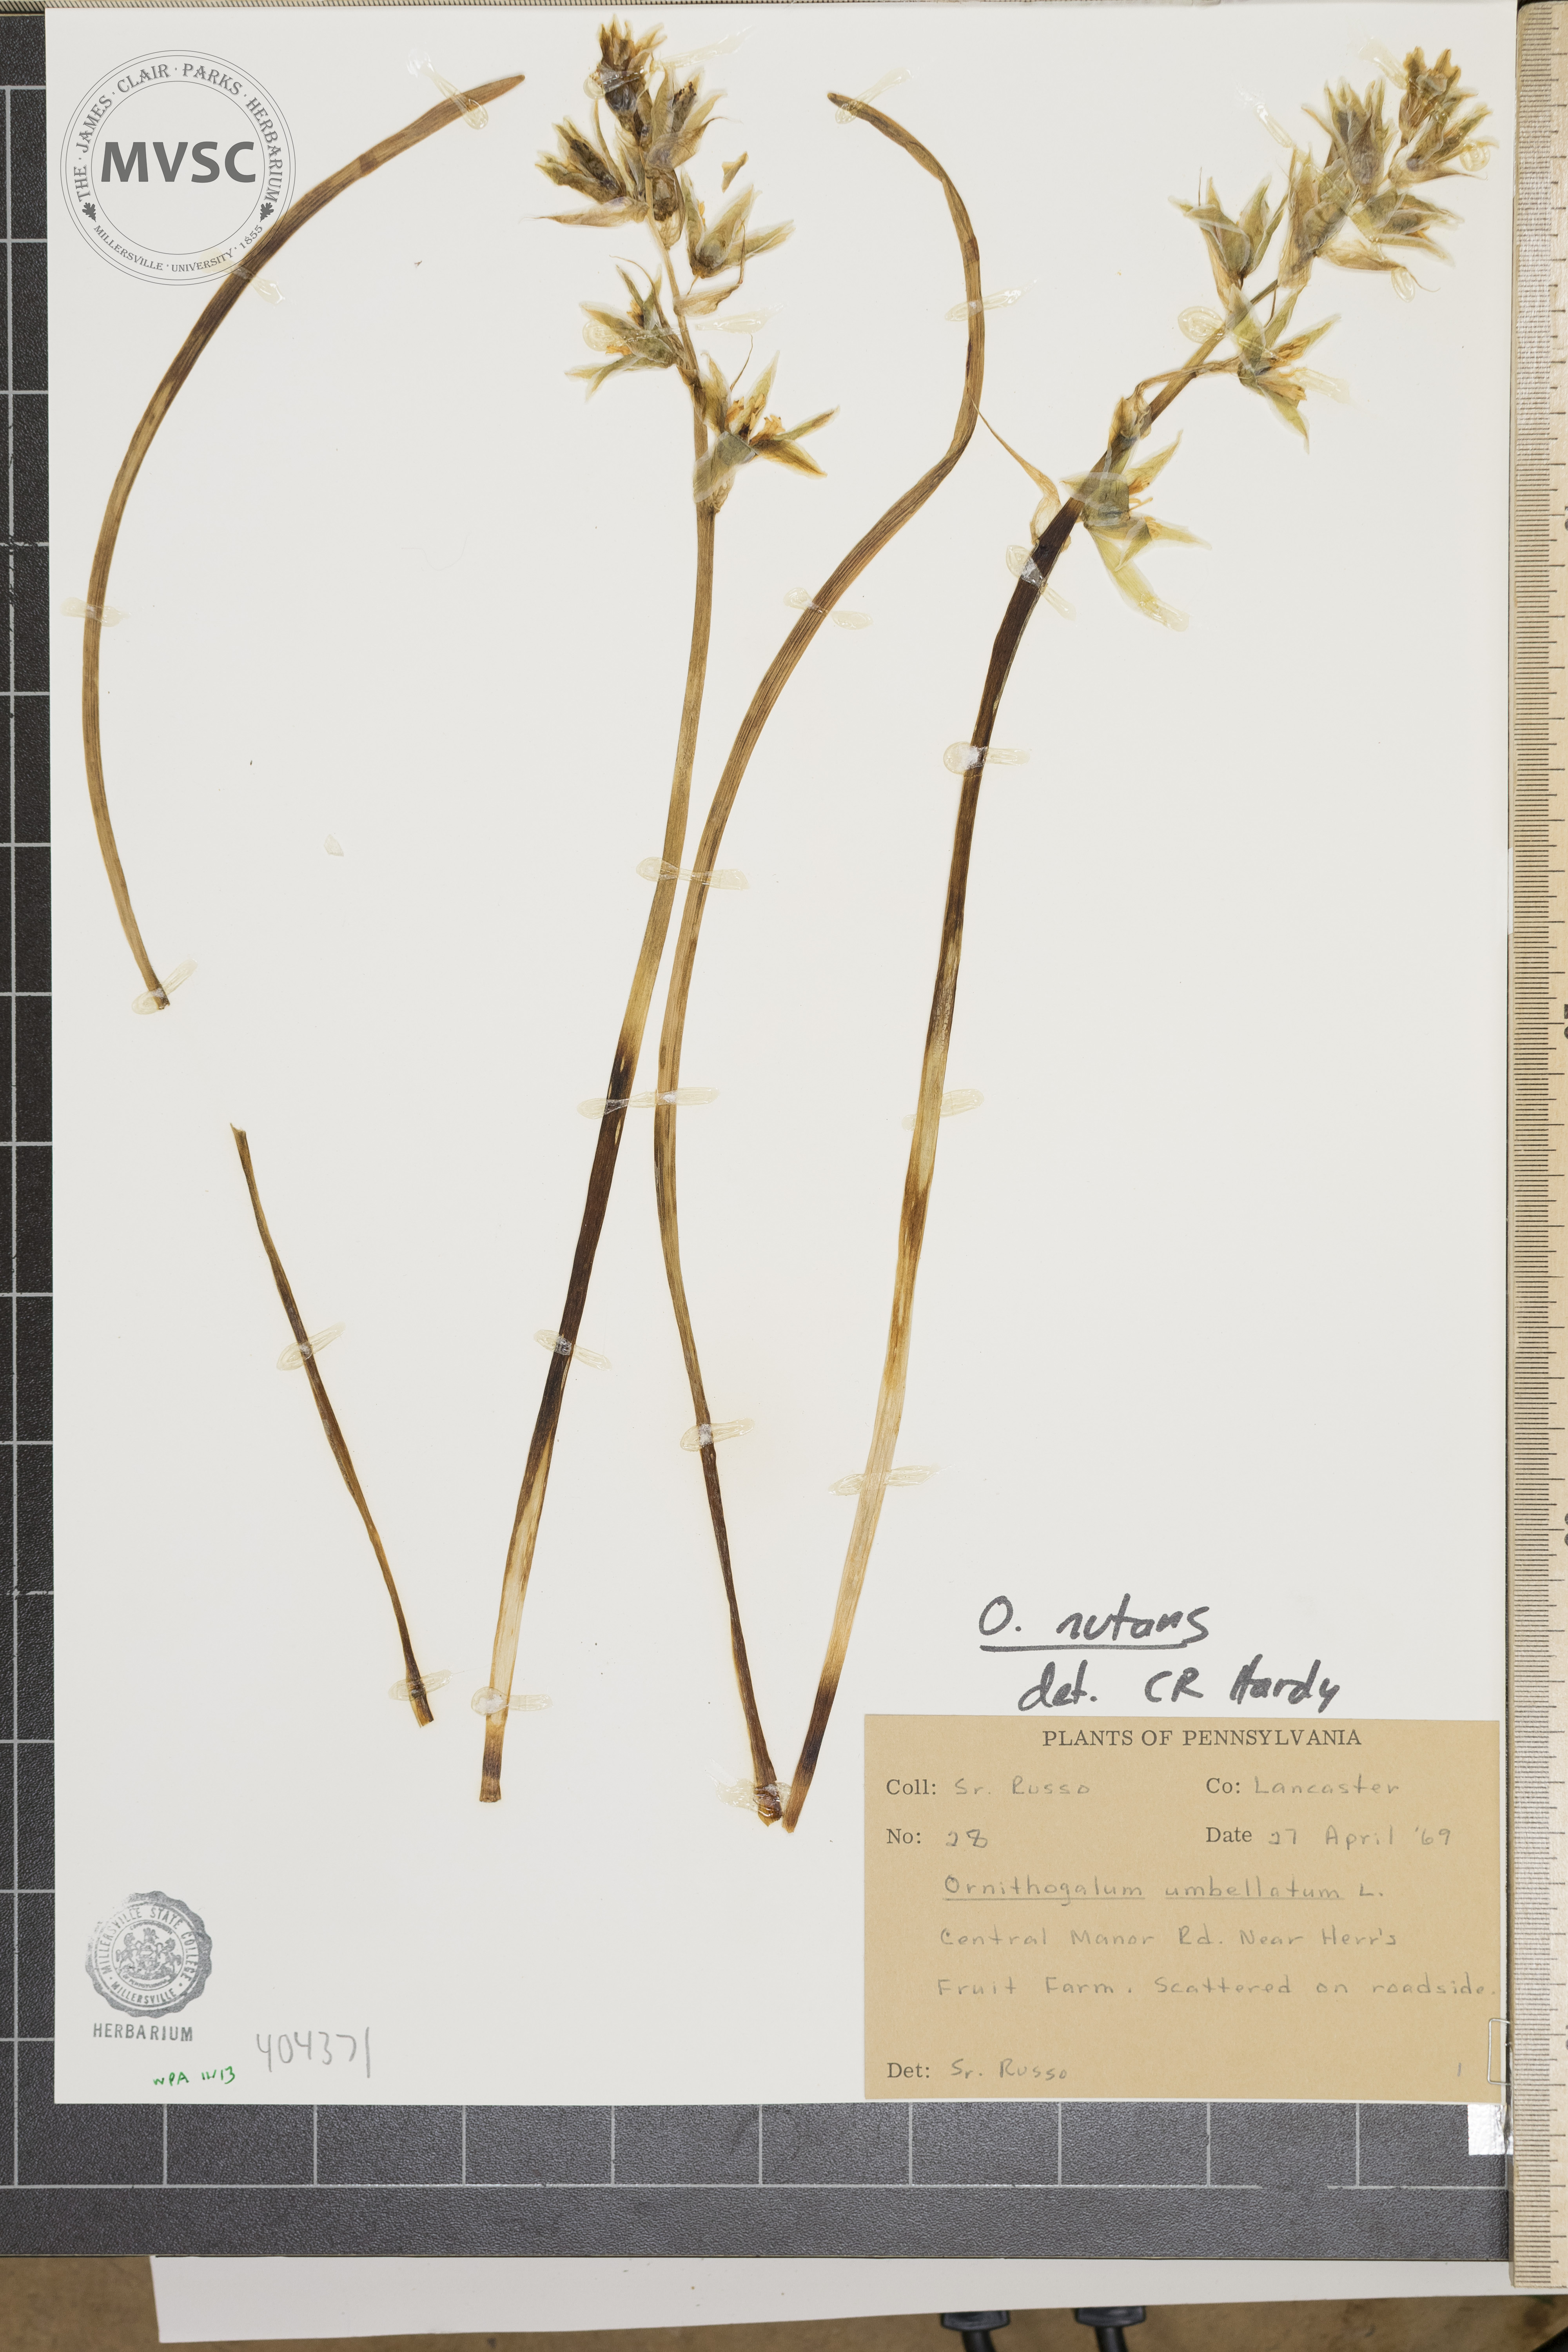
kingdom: Plantae
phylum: Tracheophyta
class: Liliopsida
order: Asparagales
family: Asparagaceae
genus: Ornithogalum
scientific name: Ornithogalum nutans
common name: Star of Bethlehem
